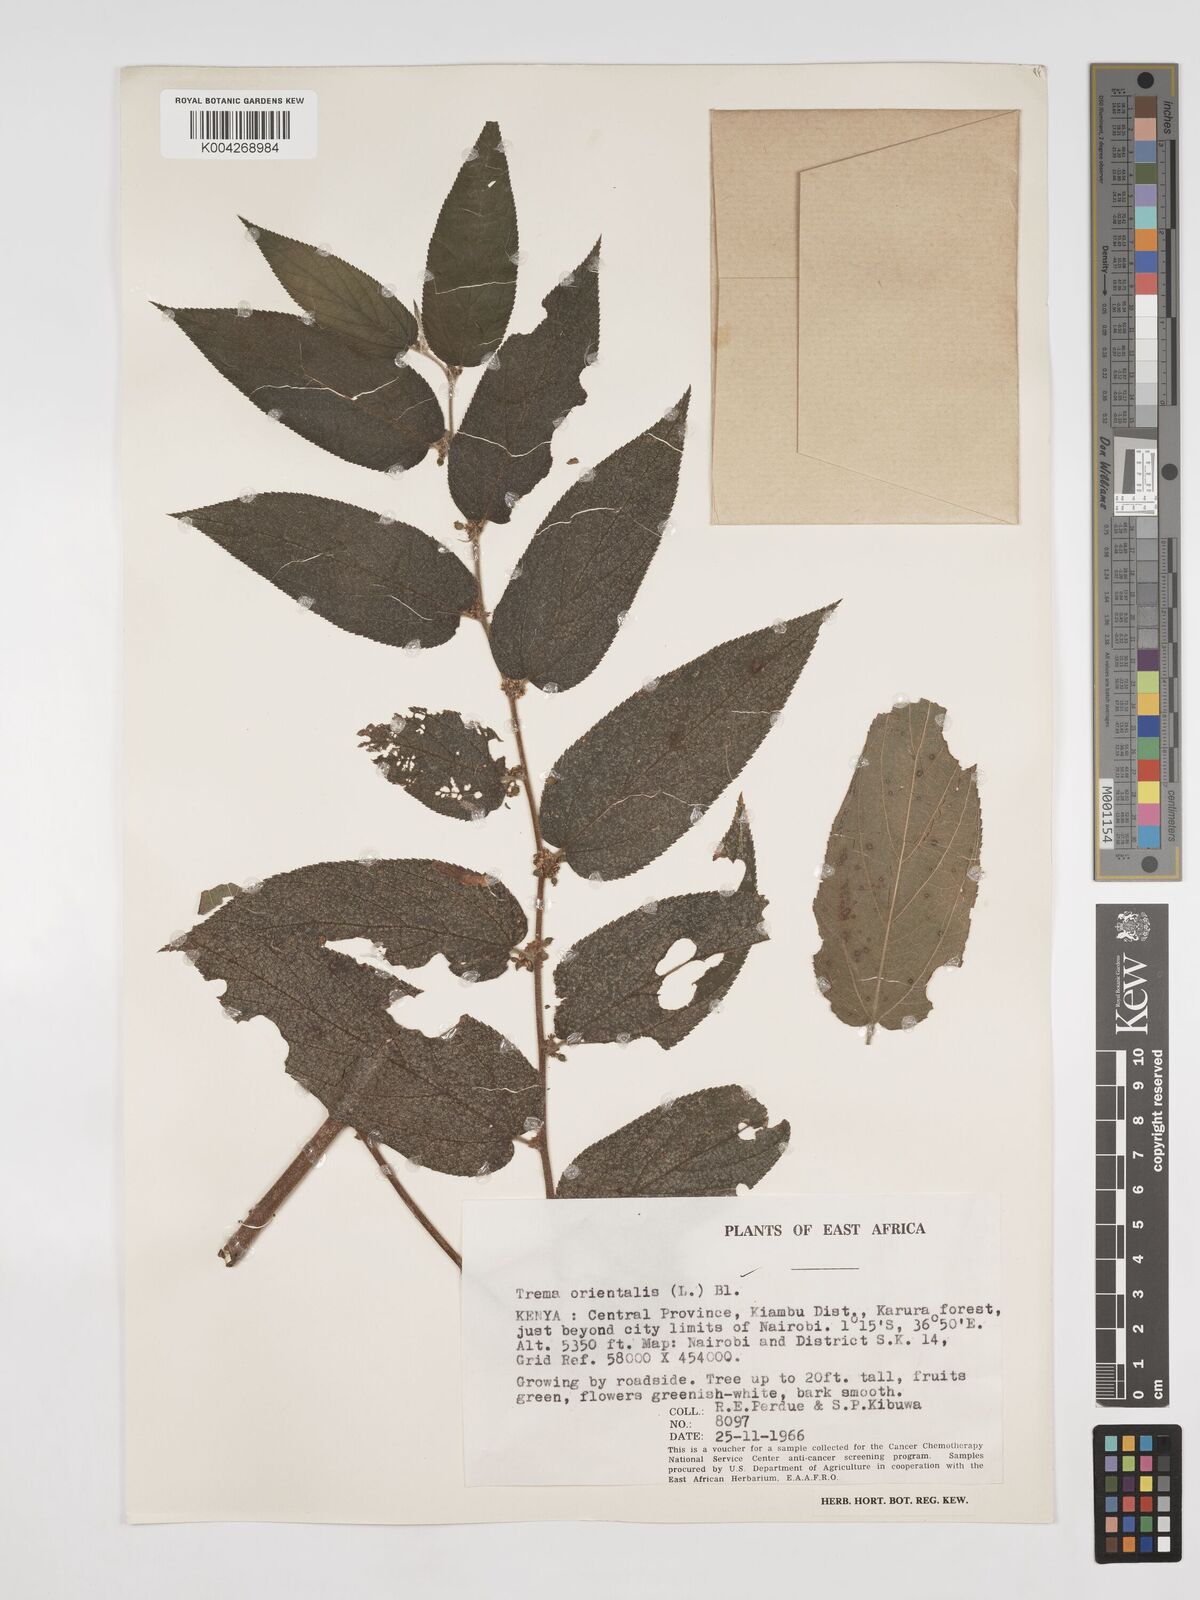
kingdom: Plantae
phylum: Tracheophyta
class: Magnoliopsida
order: Rosales
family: Cannabaceae
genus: Trema
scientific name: Trema orientale
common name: Indian charcoal tree
